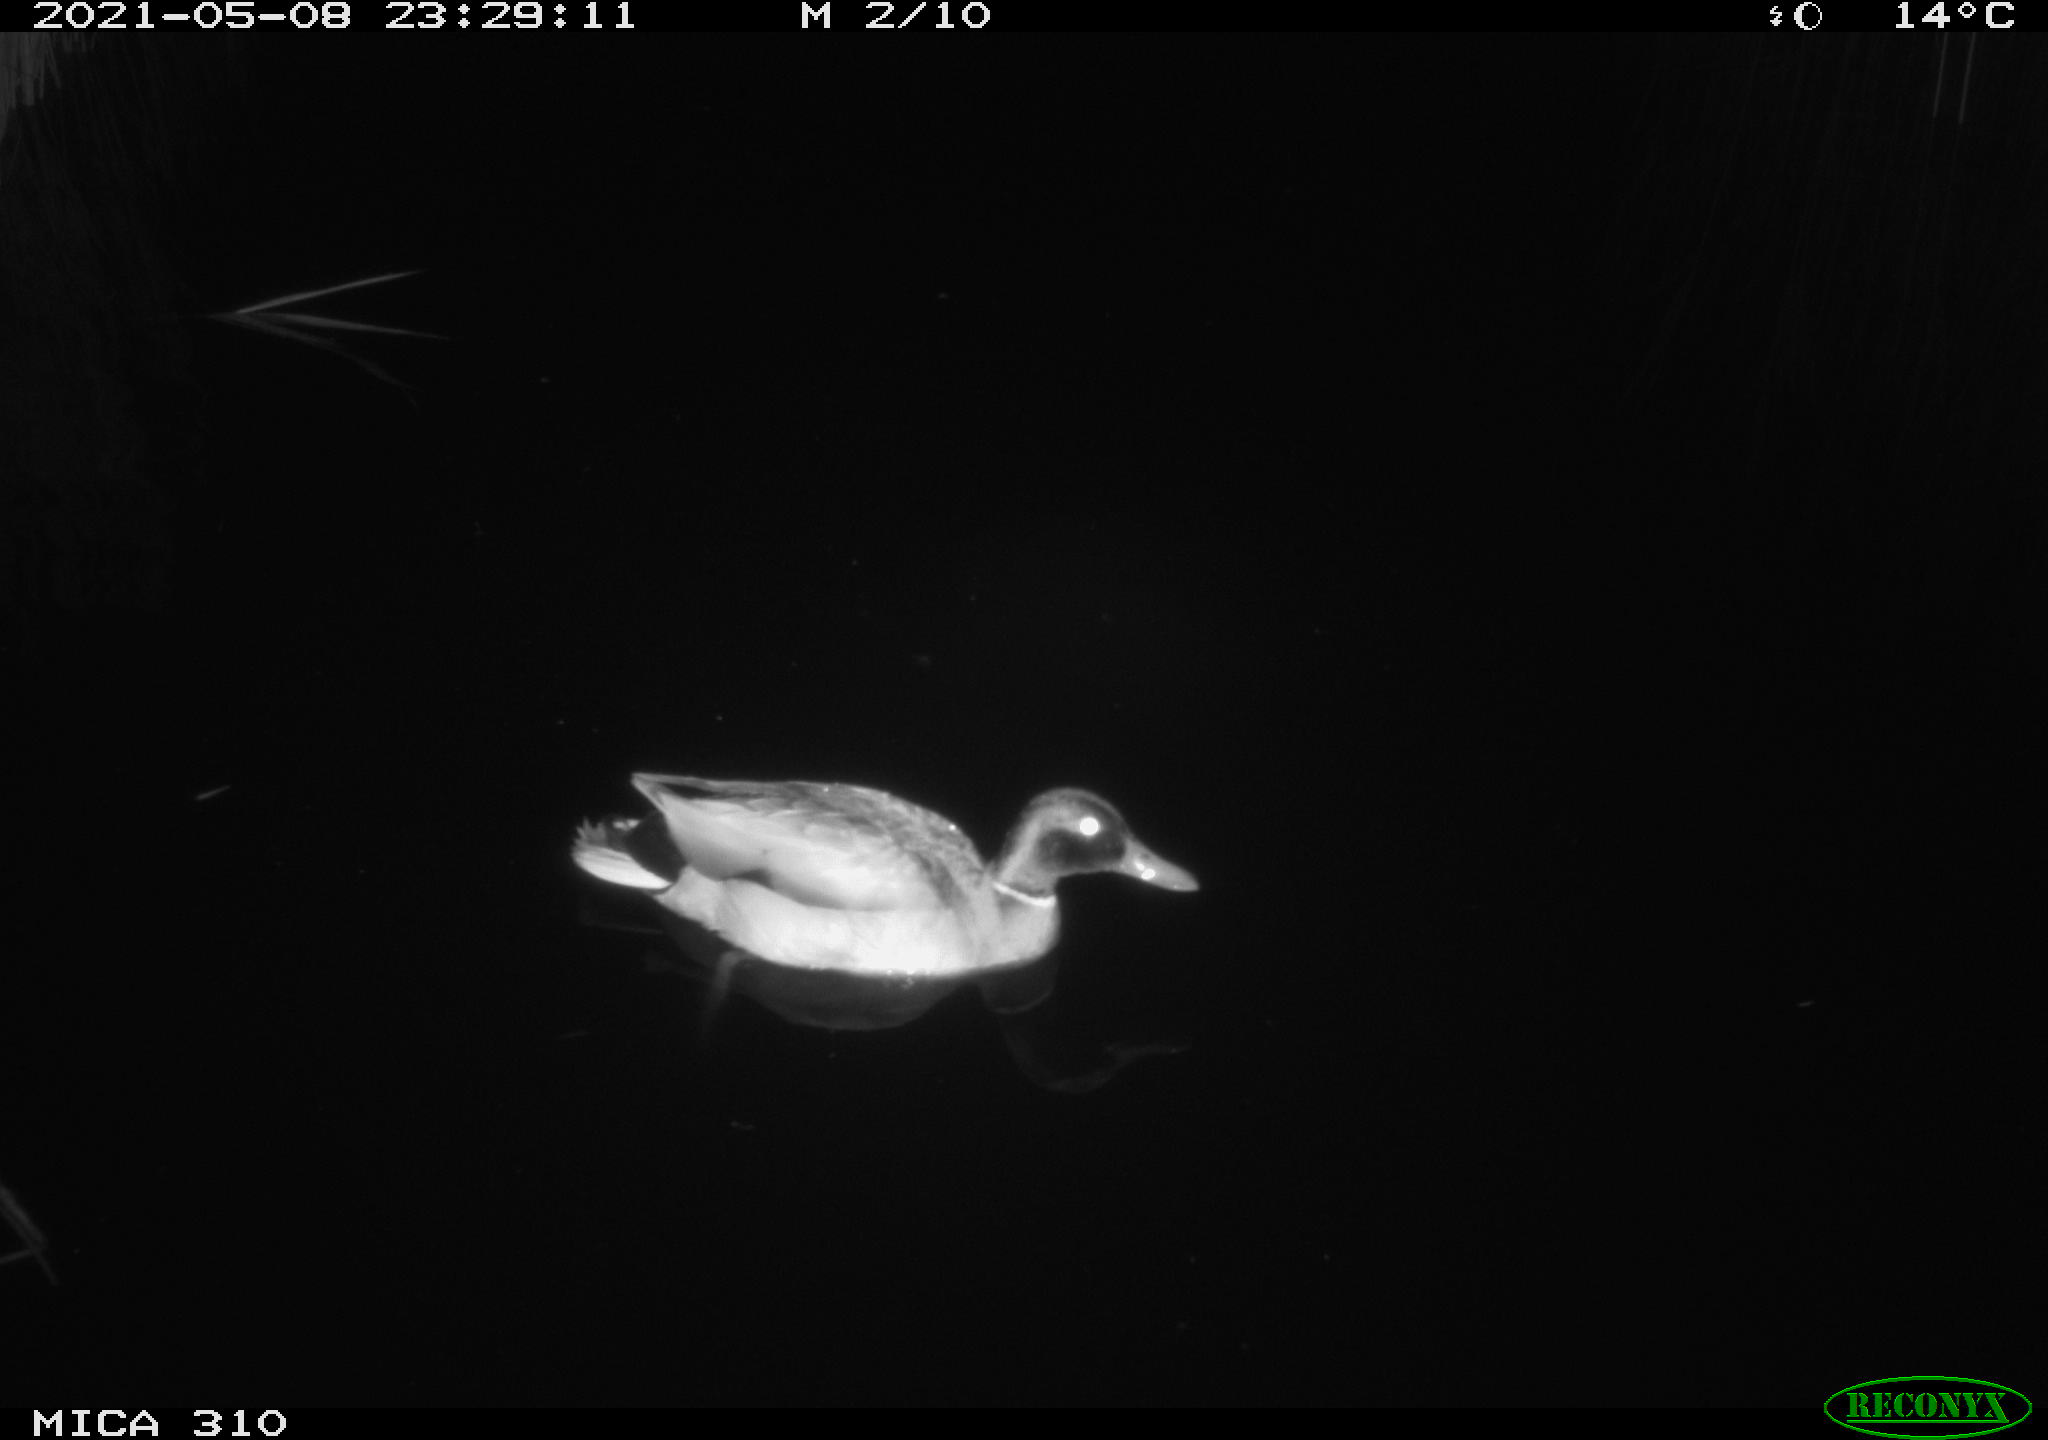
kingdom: Animalia
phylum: Chordata
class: Aves
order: Anseriformes
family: Anatidae
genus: Anas
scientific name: Anas platyrhynchos
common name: Mallard
